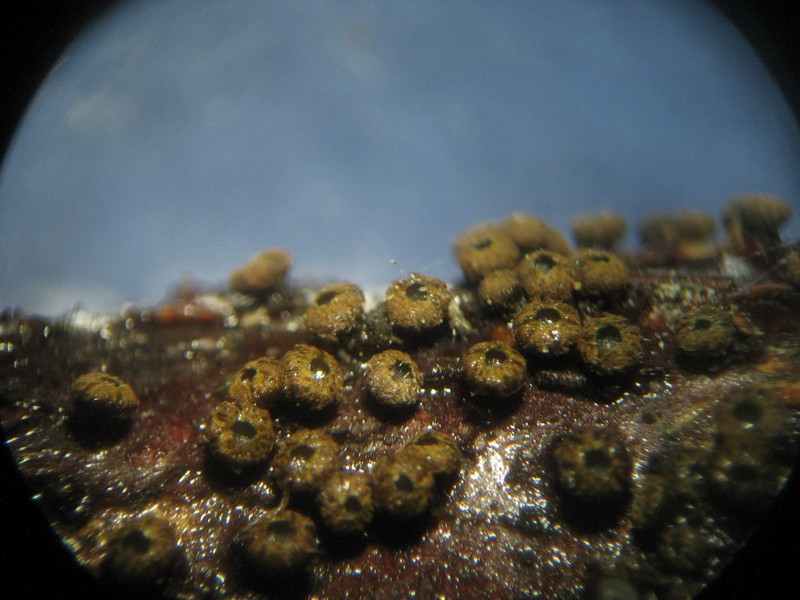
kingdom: Fungi
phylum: Ascomycota
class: Leotiomycetes
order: Helotiales
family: Godroniaceae
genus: Godronia
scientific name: Godronia uberiformis
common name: solbær-urneskive
